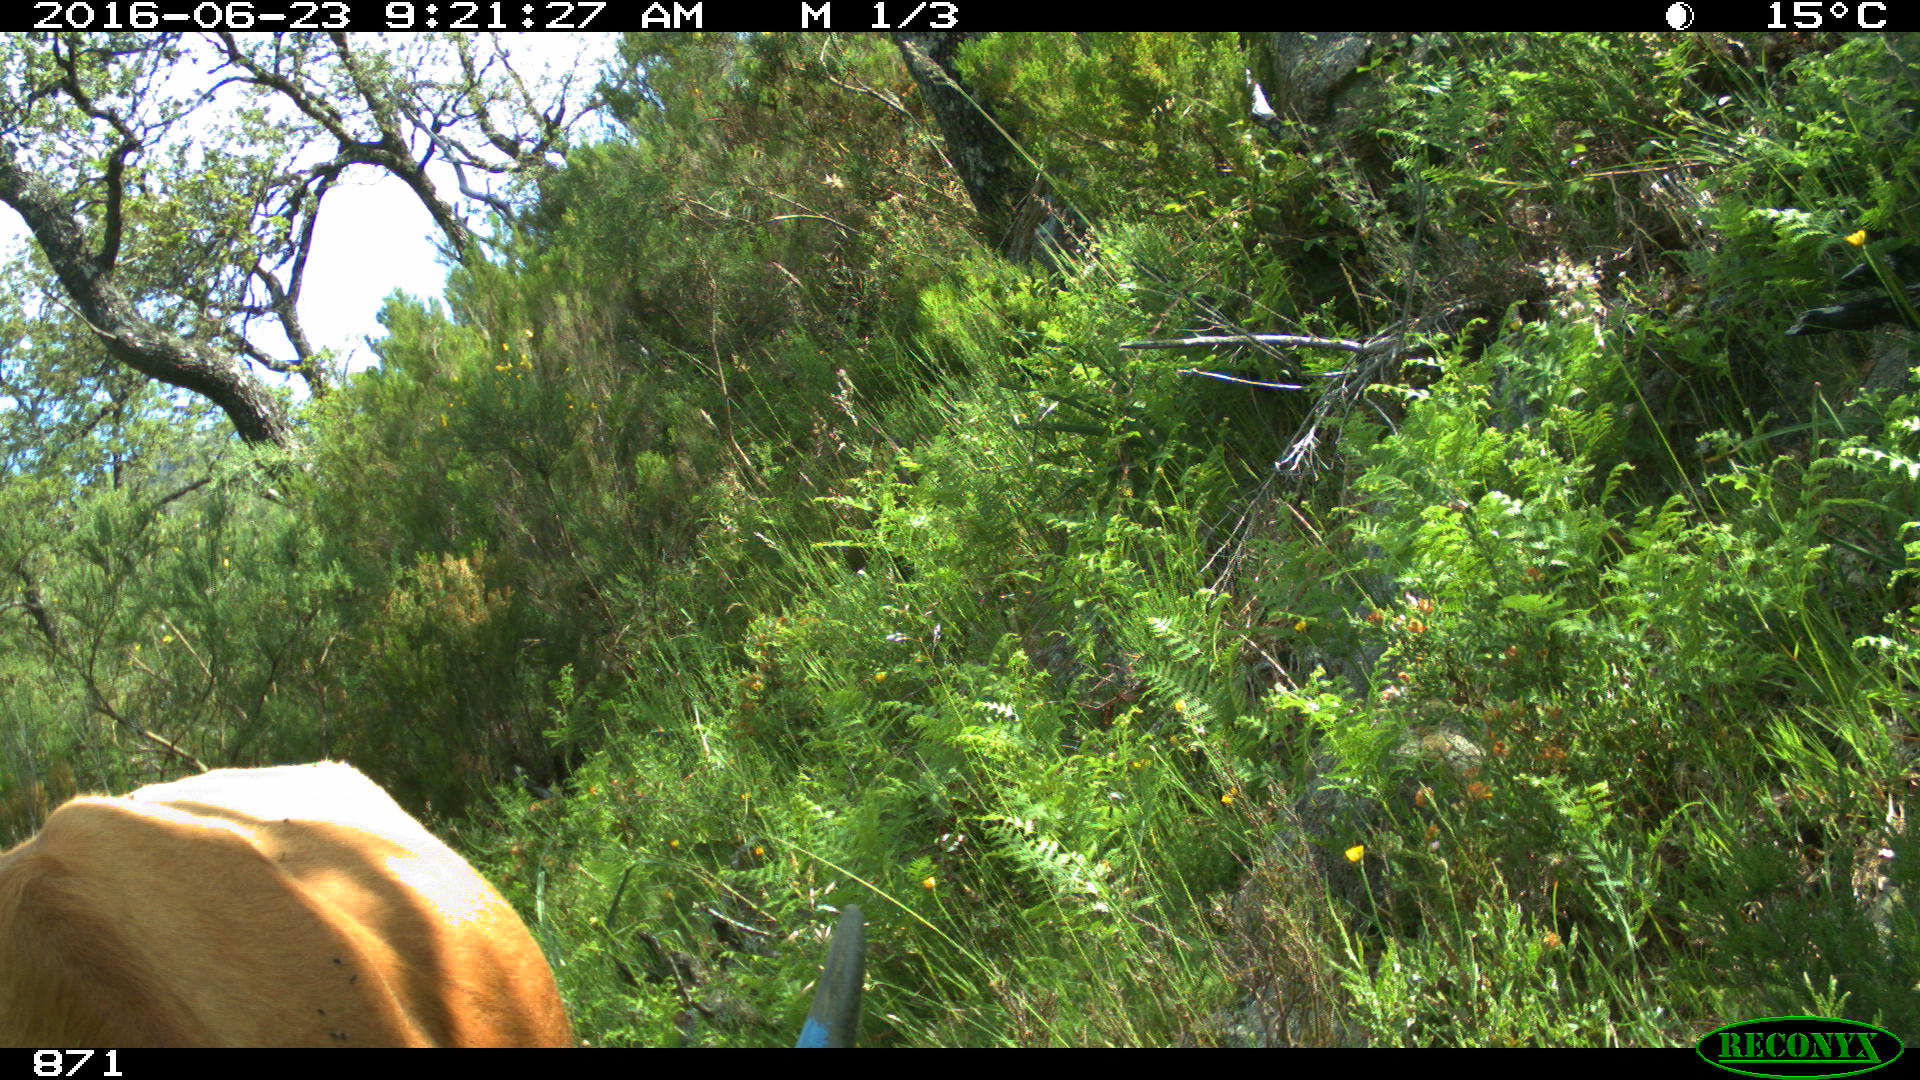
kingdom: Animalia
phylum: Chordata
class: Mammalia
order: Artiodactyla
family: Bovidae
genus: Bos
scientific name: Bos taurus
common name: Domesticated cattle
